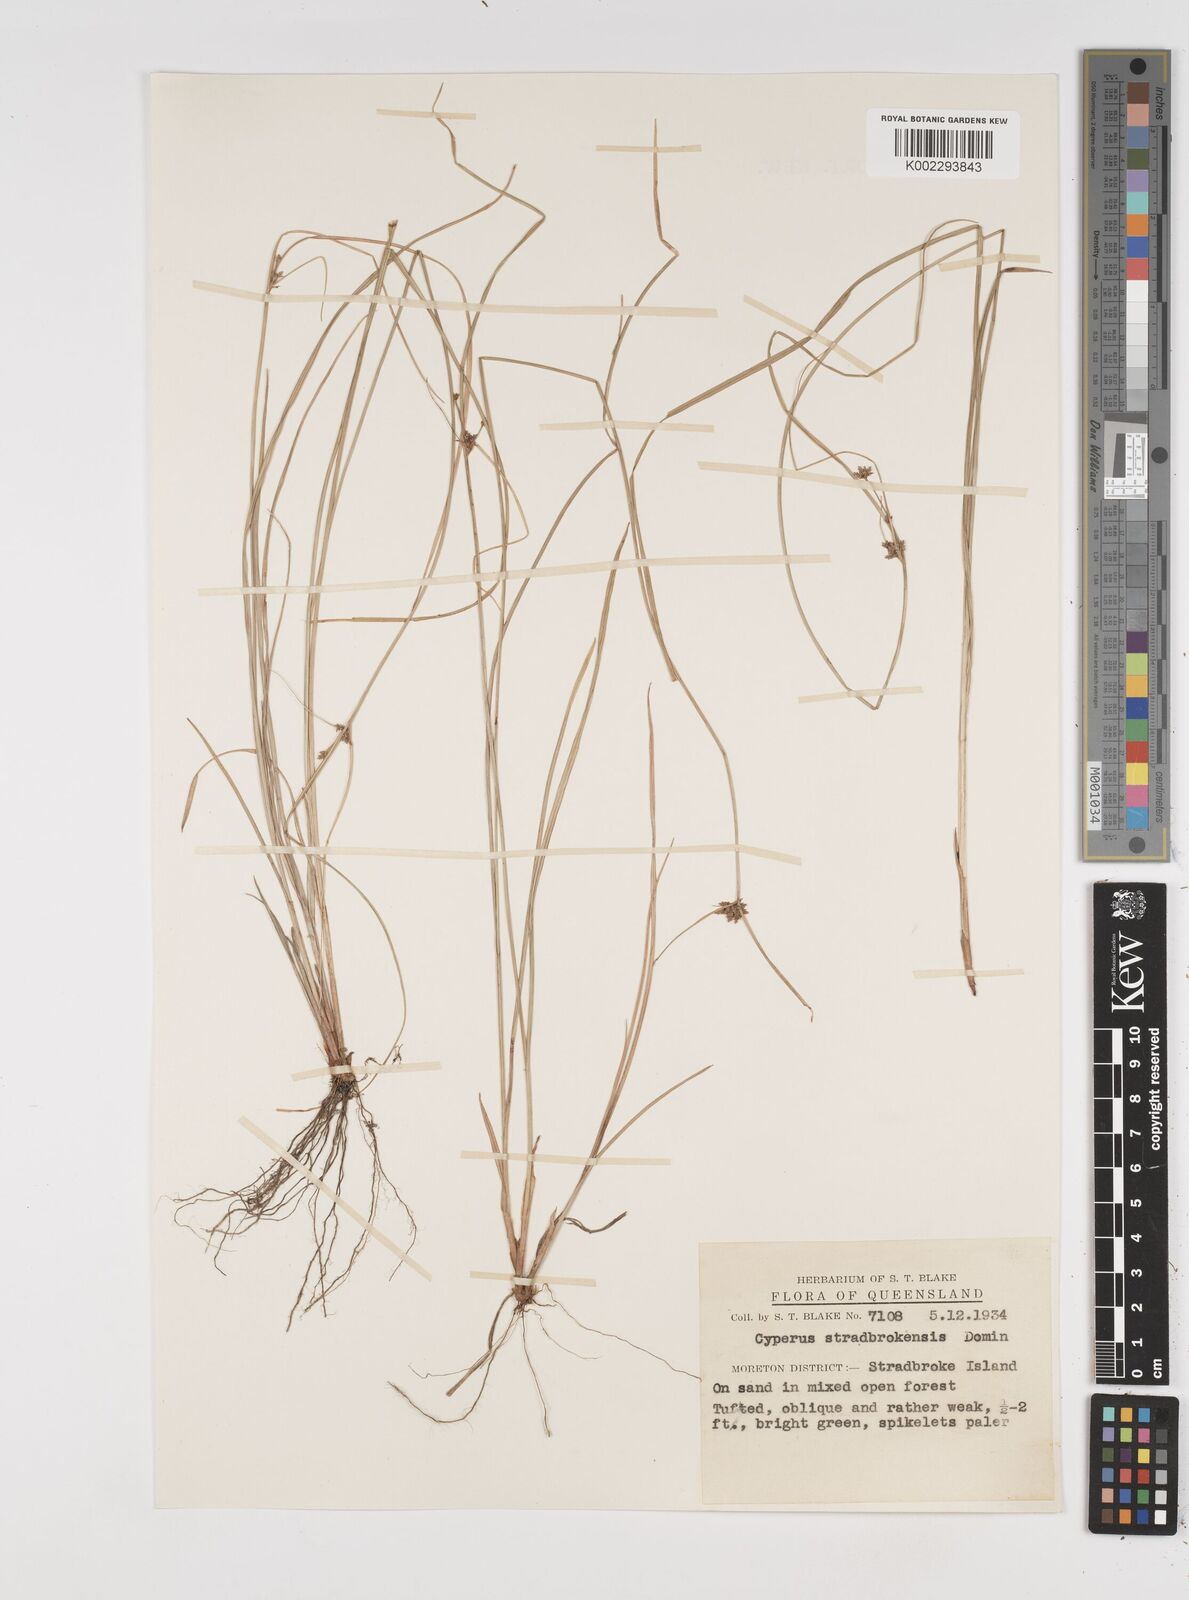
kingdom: Plantae
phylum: Tracheophyta
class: Liliopsida
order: Poales
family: Cyperaceae
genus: Cyperus
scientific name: Cyperus stradbrokensis
